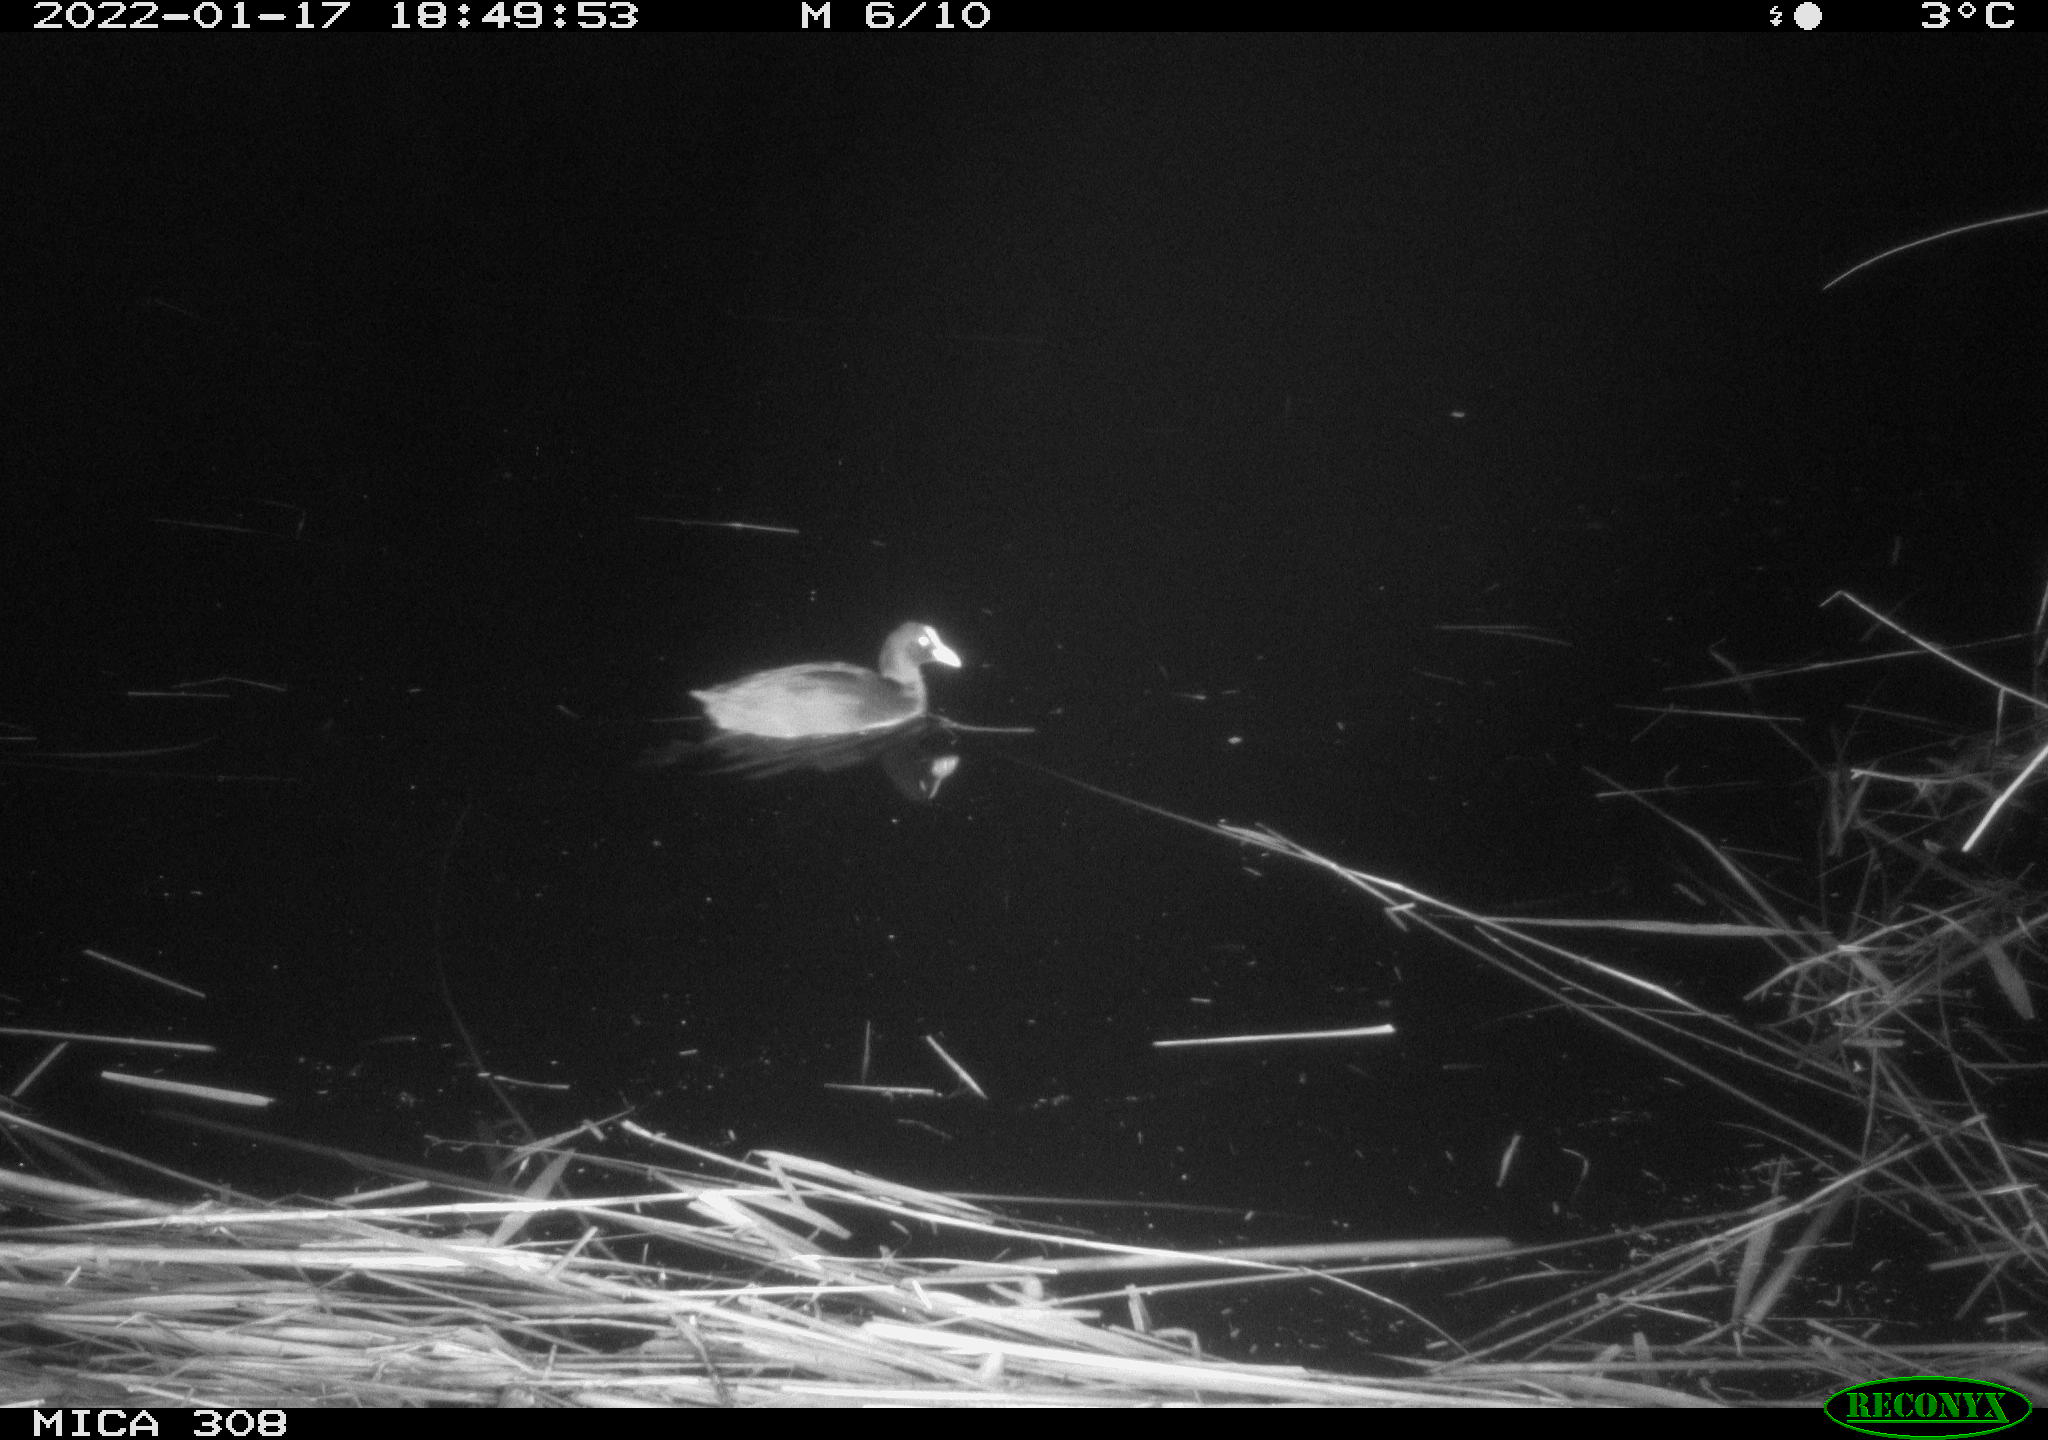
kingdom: Animalia
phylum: Chordata
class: Aves
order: Anseriformes
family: Anatidae
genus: Anas
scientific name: Anas
